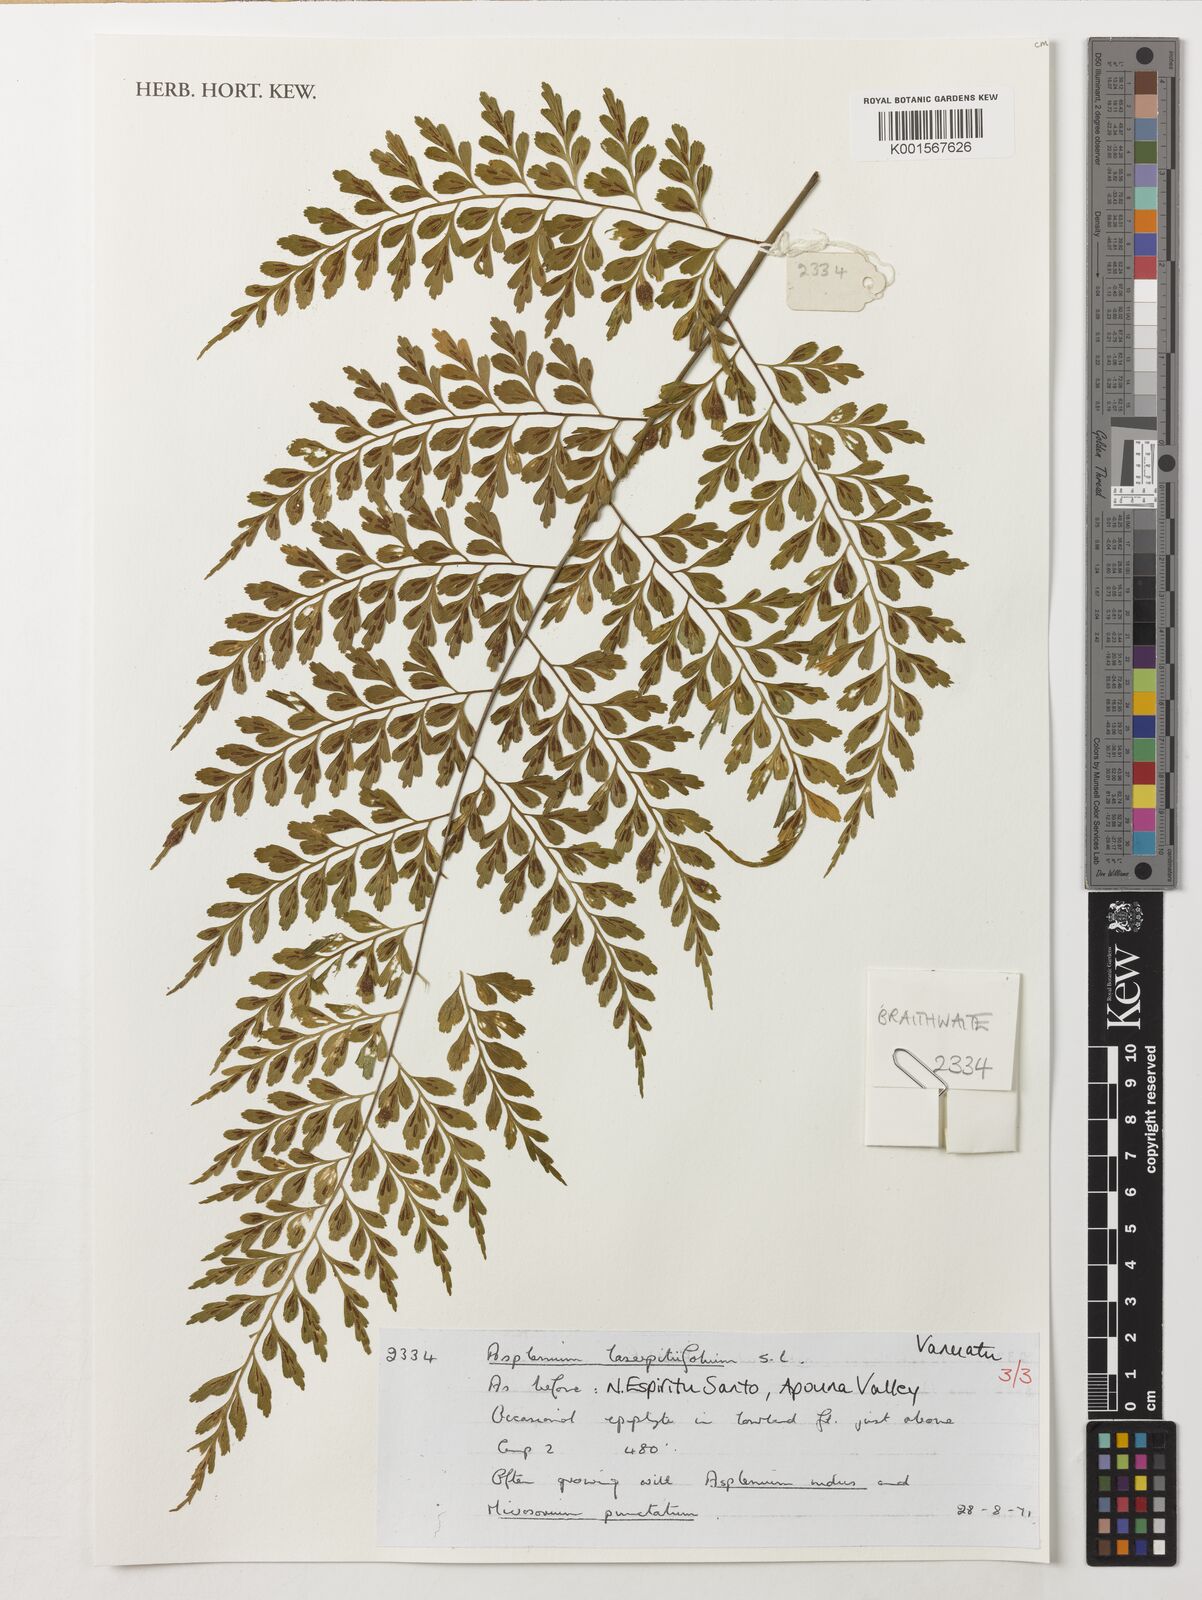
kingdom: Plantae
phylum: Tracheophyta
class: Polypodiopsida
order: Polypodiales
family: Aspleniaceae
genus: Asplenium
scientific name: Asplenium laserpitiifolium
